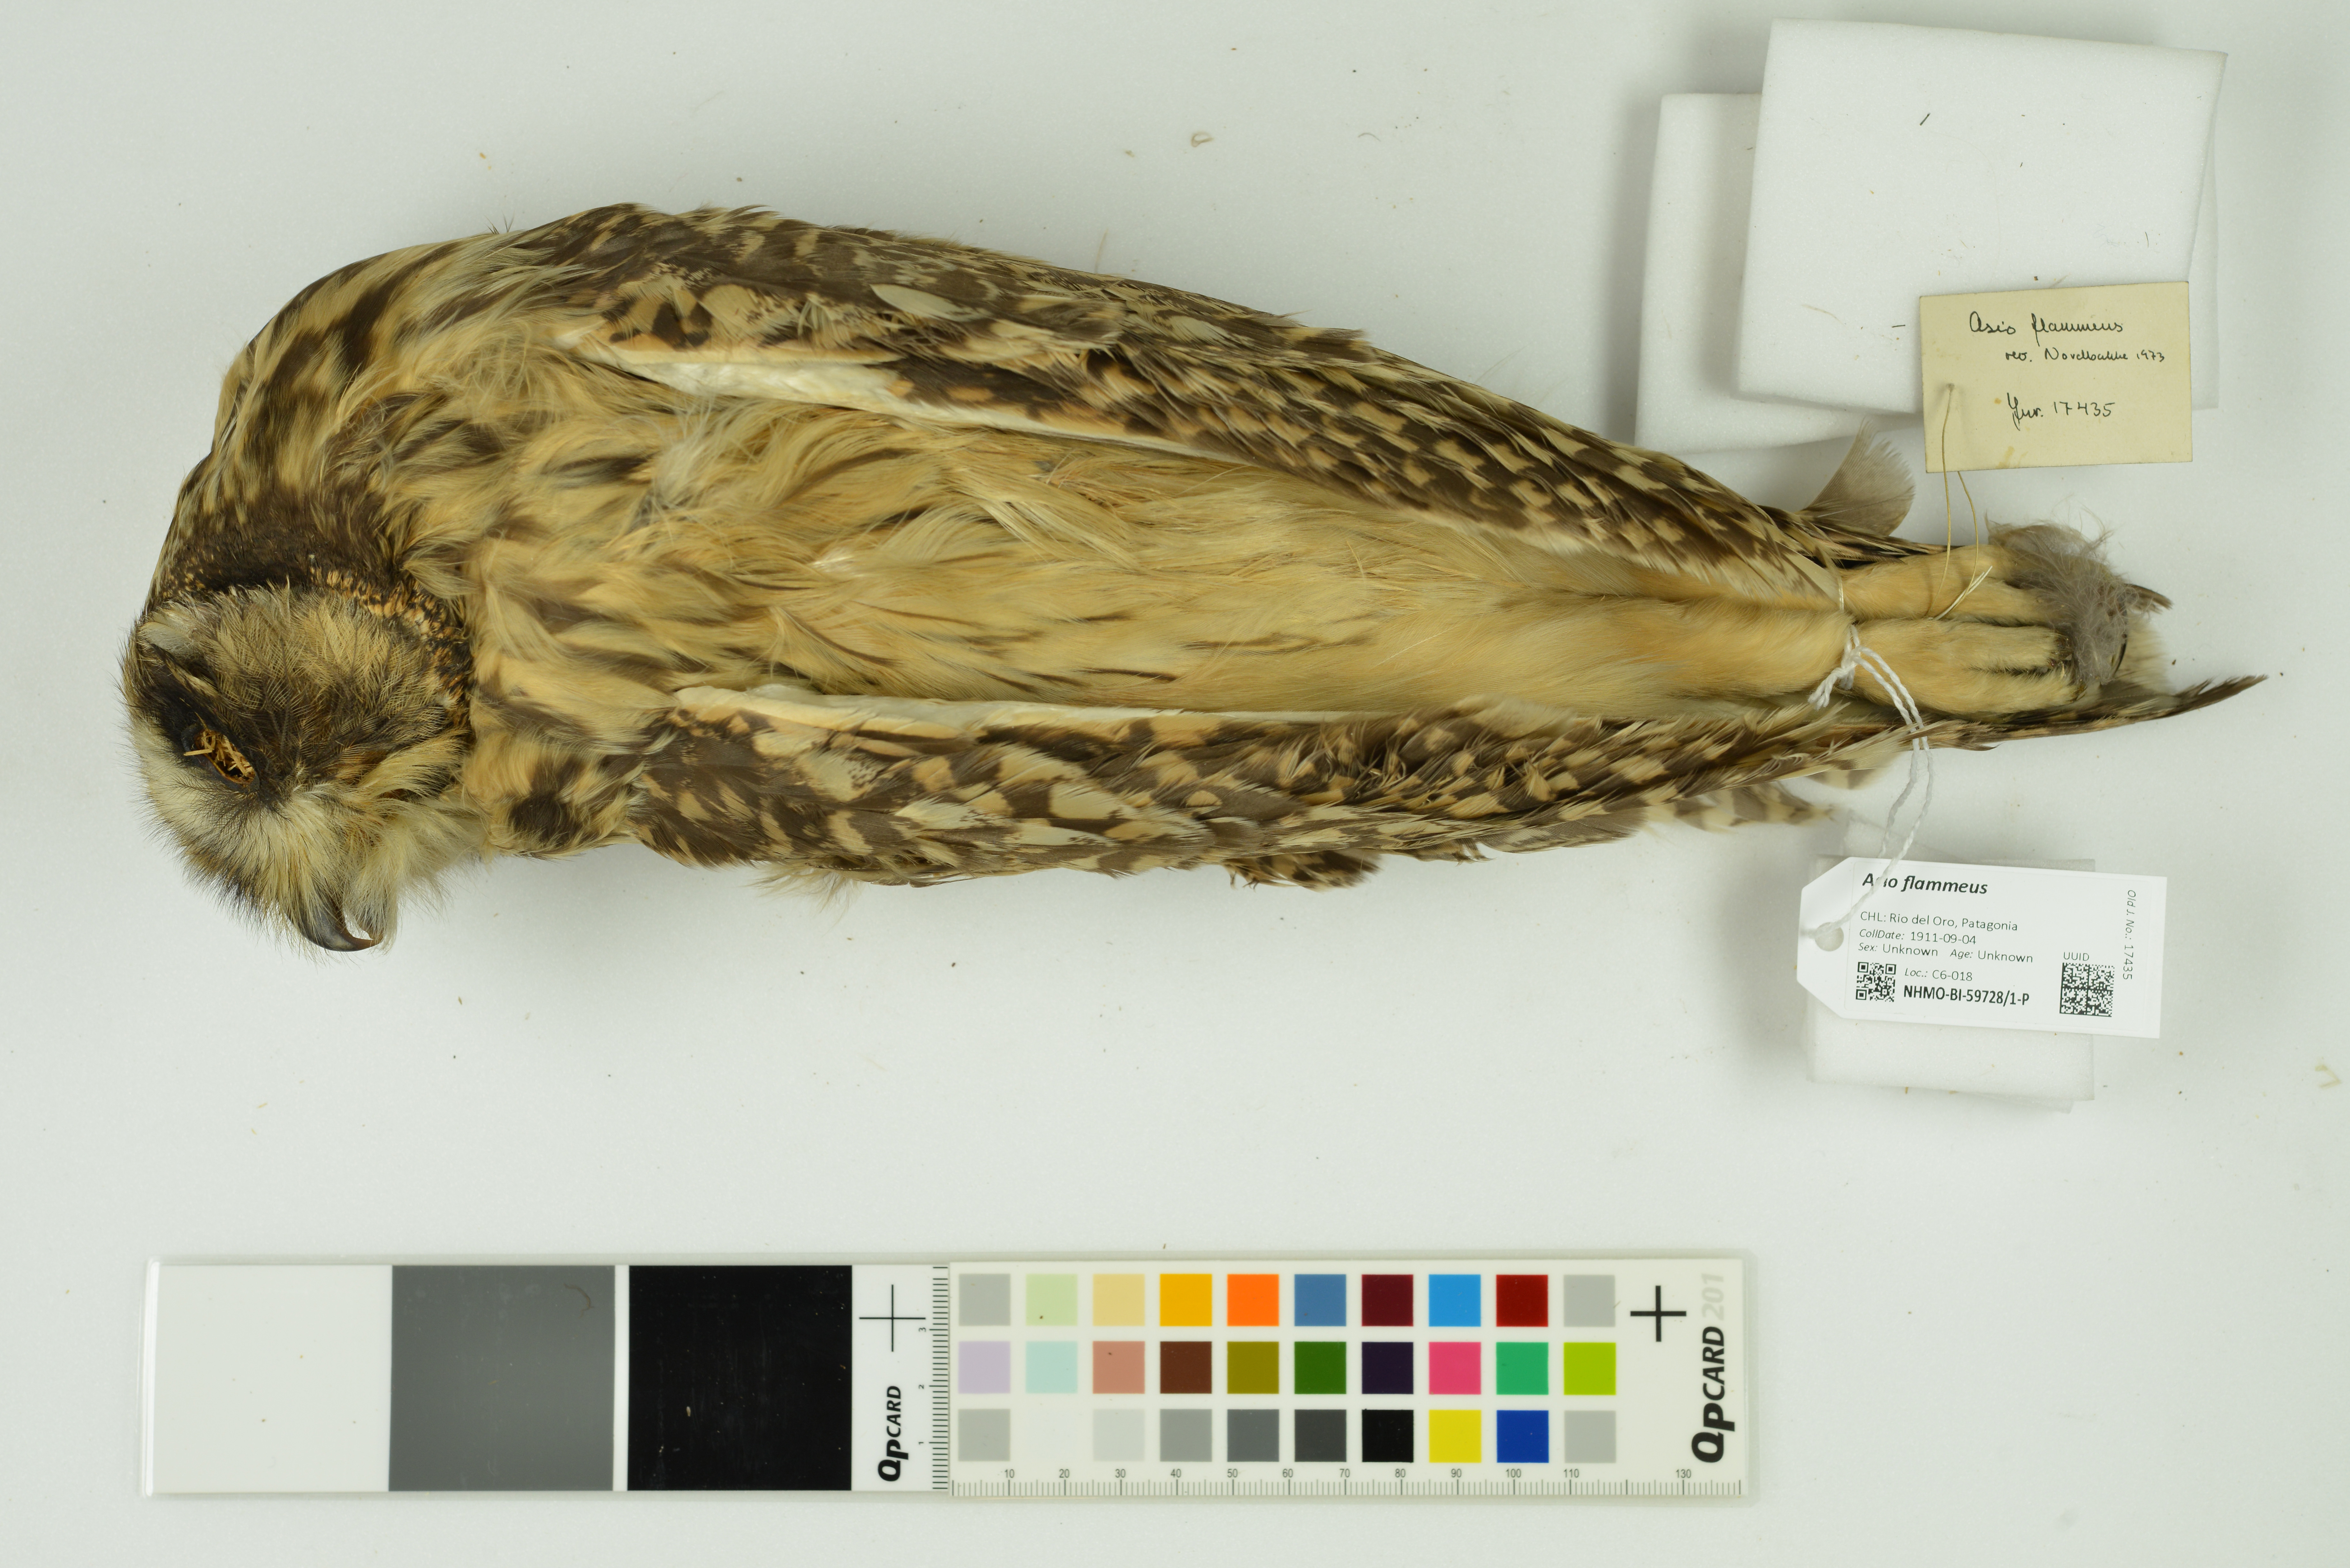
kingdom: Animalia
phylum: Chordata
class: Aves
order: Strigiformes
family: Strigidae
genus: Asio
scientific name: Asio flammeus
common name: Short-eared owl
